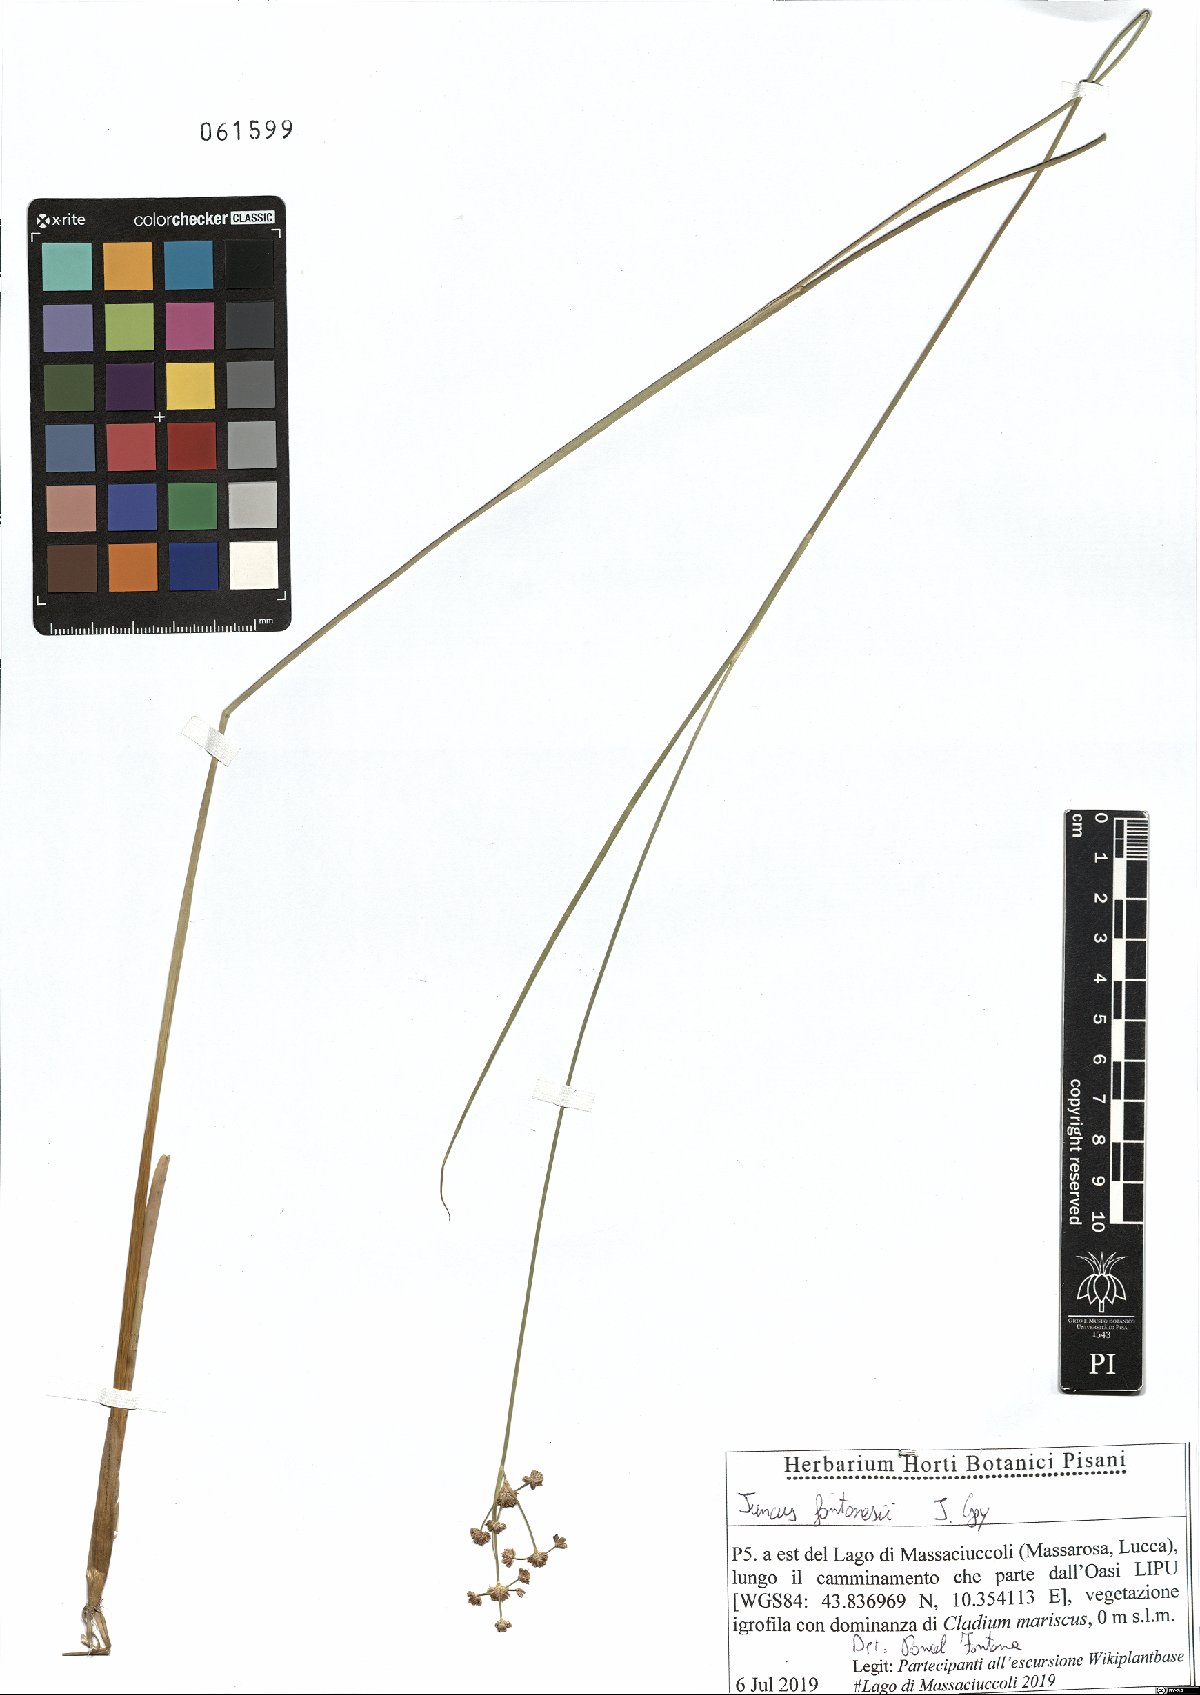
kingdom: Plantae
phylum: Tracheophyta
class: Liliopsida
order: Poales
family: Juncaceae
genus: Juncus
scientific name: Juncus fontanesii
